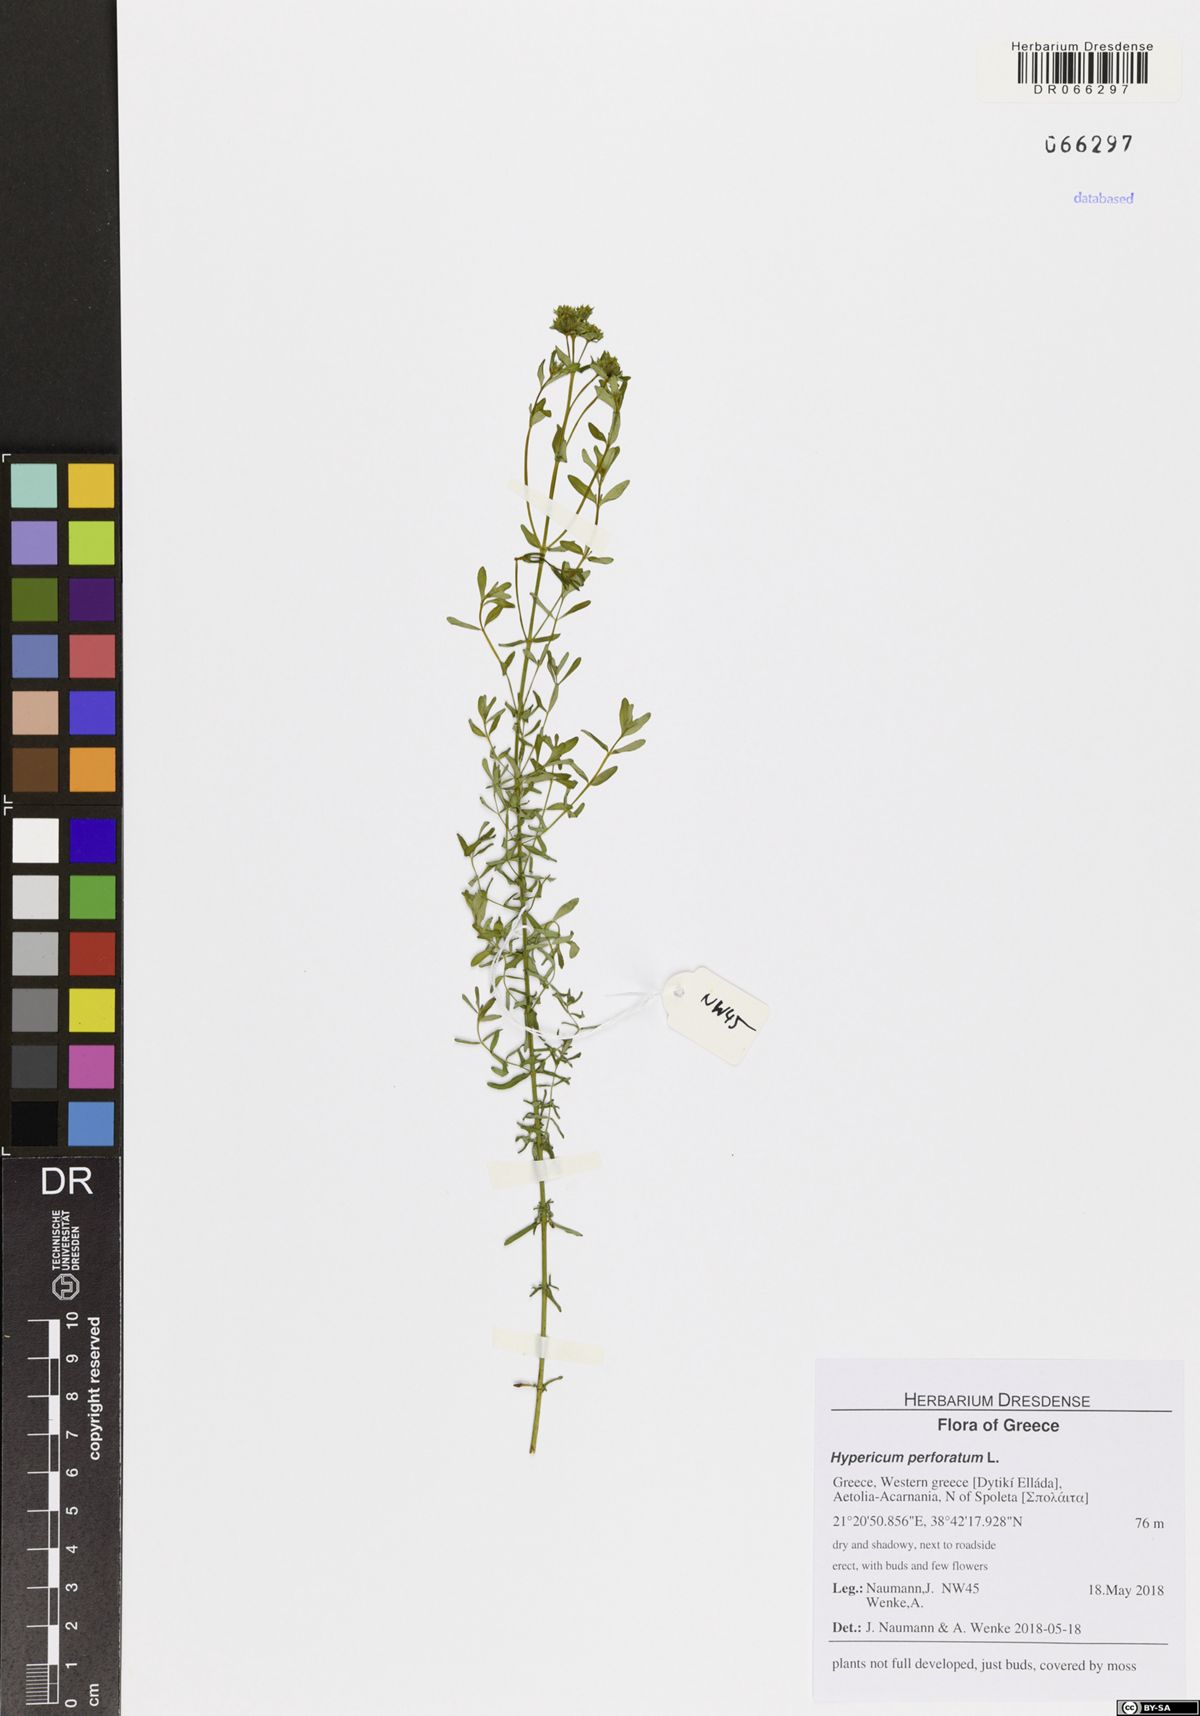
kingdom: Plantae
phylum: Tracheophyta
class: Magnoliopsida
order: Malpighiales
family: Hypericaceae
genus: Hypericum
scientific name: Hypericum perforatum
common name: Common st. johnswort
